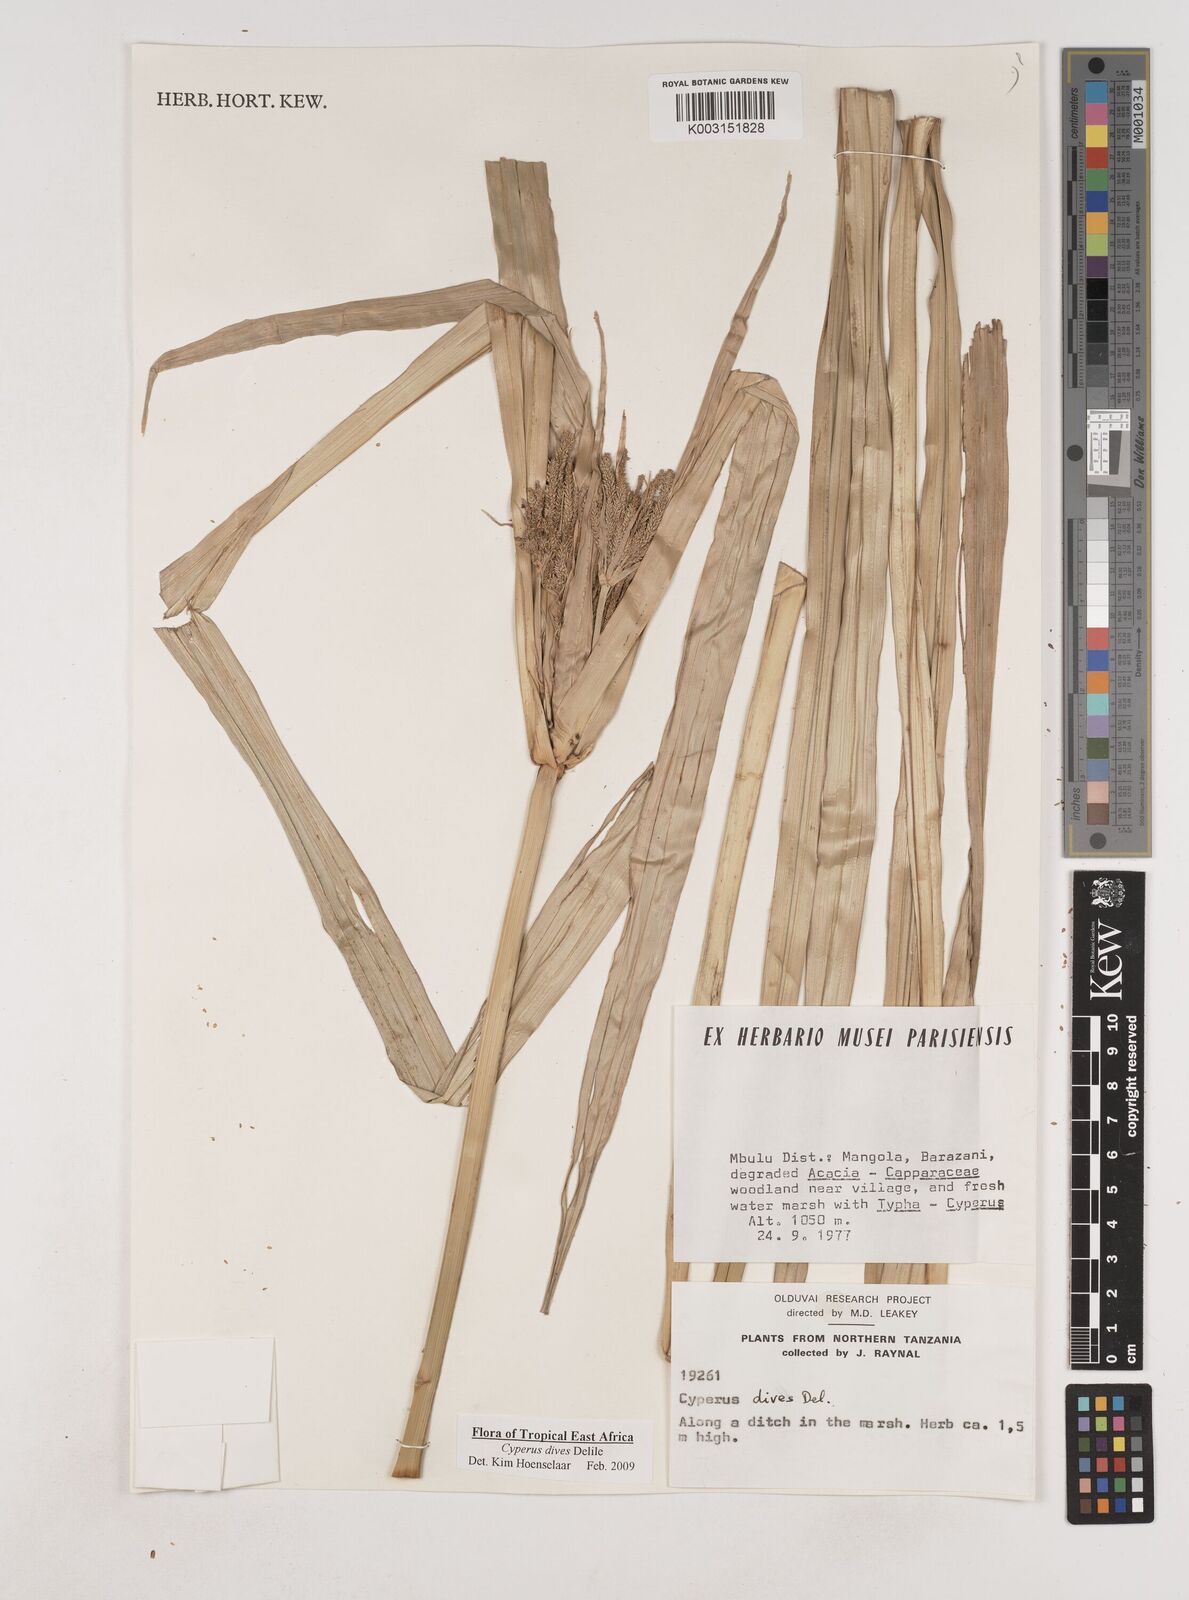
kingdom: Plantae
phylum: Tracheophyta
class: Liliopsida
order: Poales
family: Cyperaceae
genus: Cyperus
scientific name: Cyperus dives
